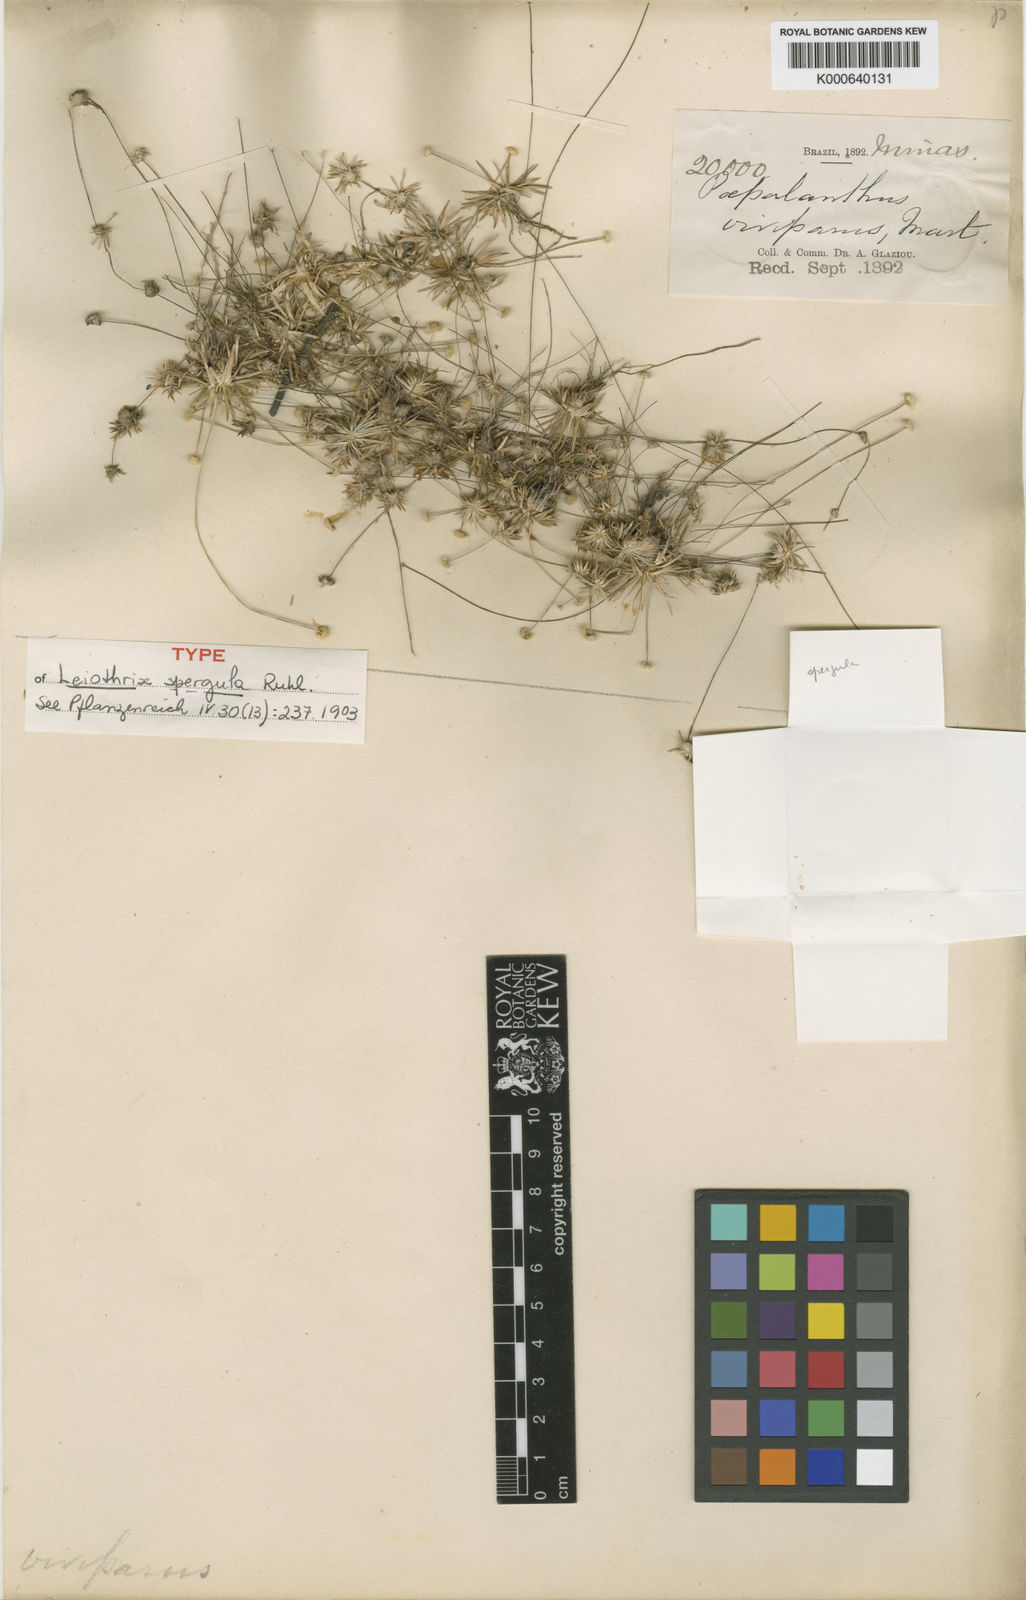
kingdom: Plantae
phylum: Tracheophyta
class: Liliopsida
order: Poales
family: Eriocaulaceae
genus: Leiothrix
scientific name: Leiothrix spergula
